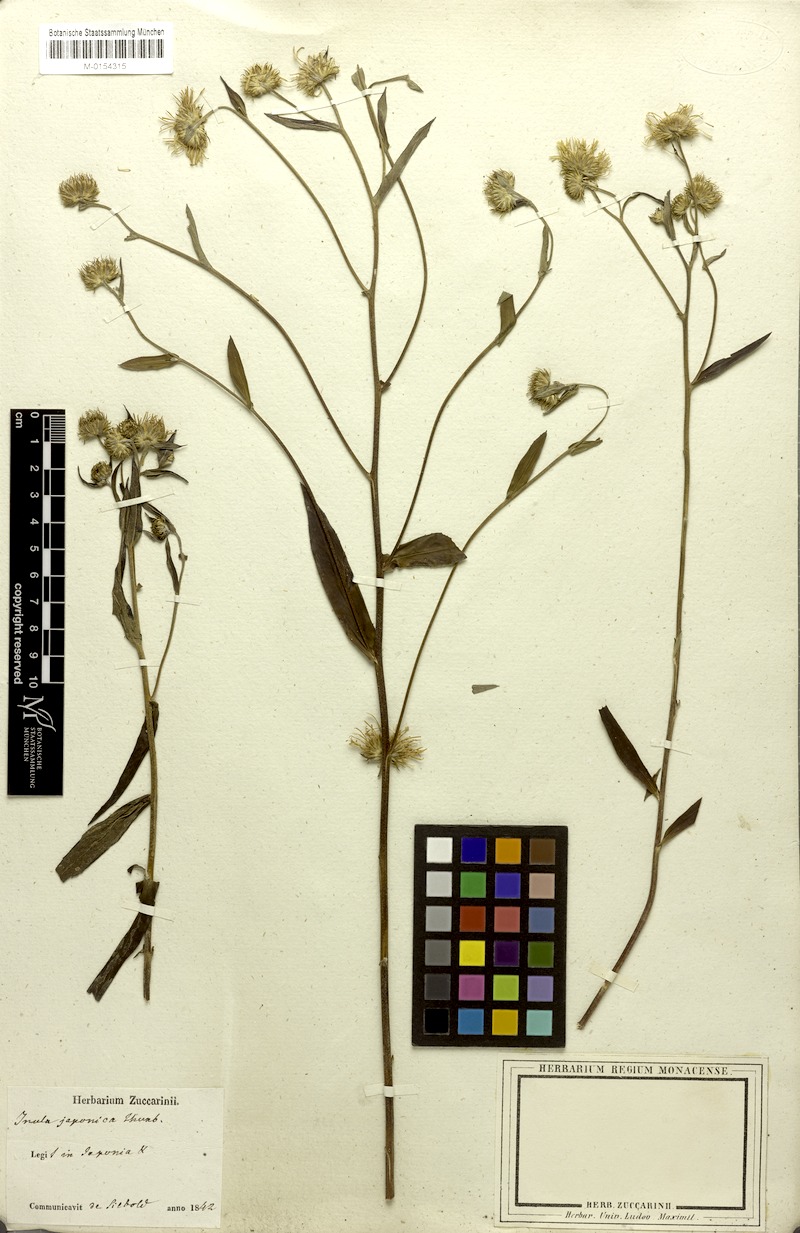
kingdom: Plantae
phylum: Tracheophyta
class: Magnoliopsida
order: Asterales
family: Asteraceae
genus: Inula
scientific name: Inula japonica
